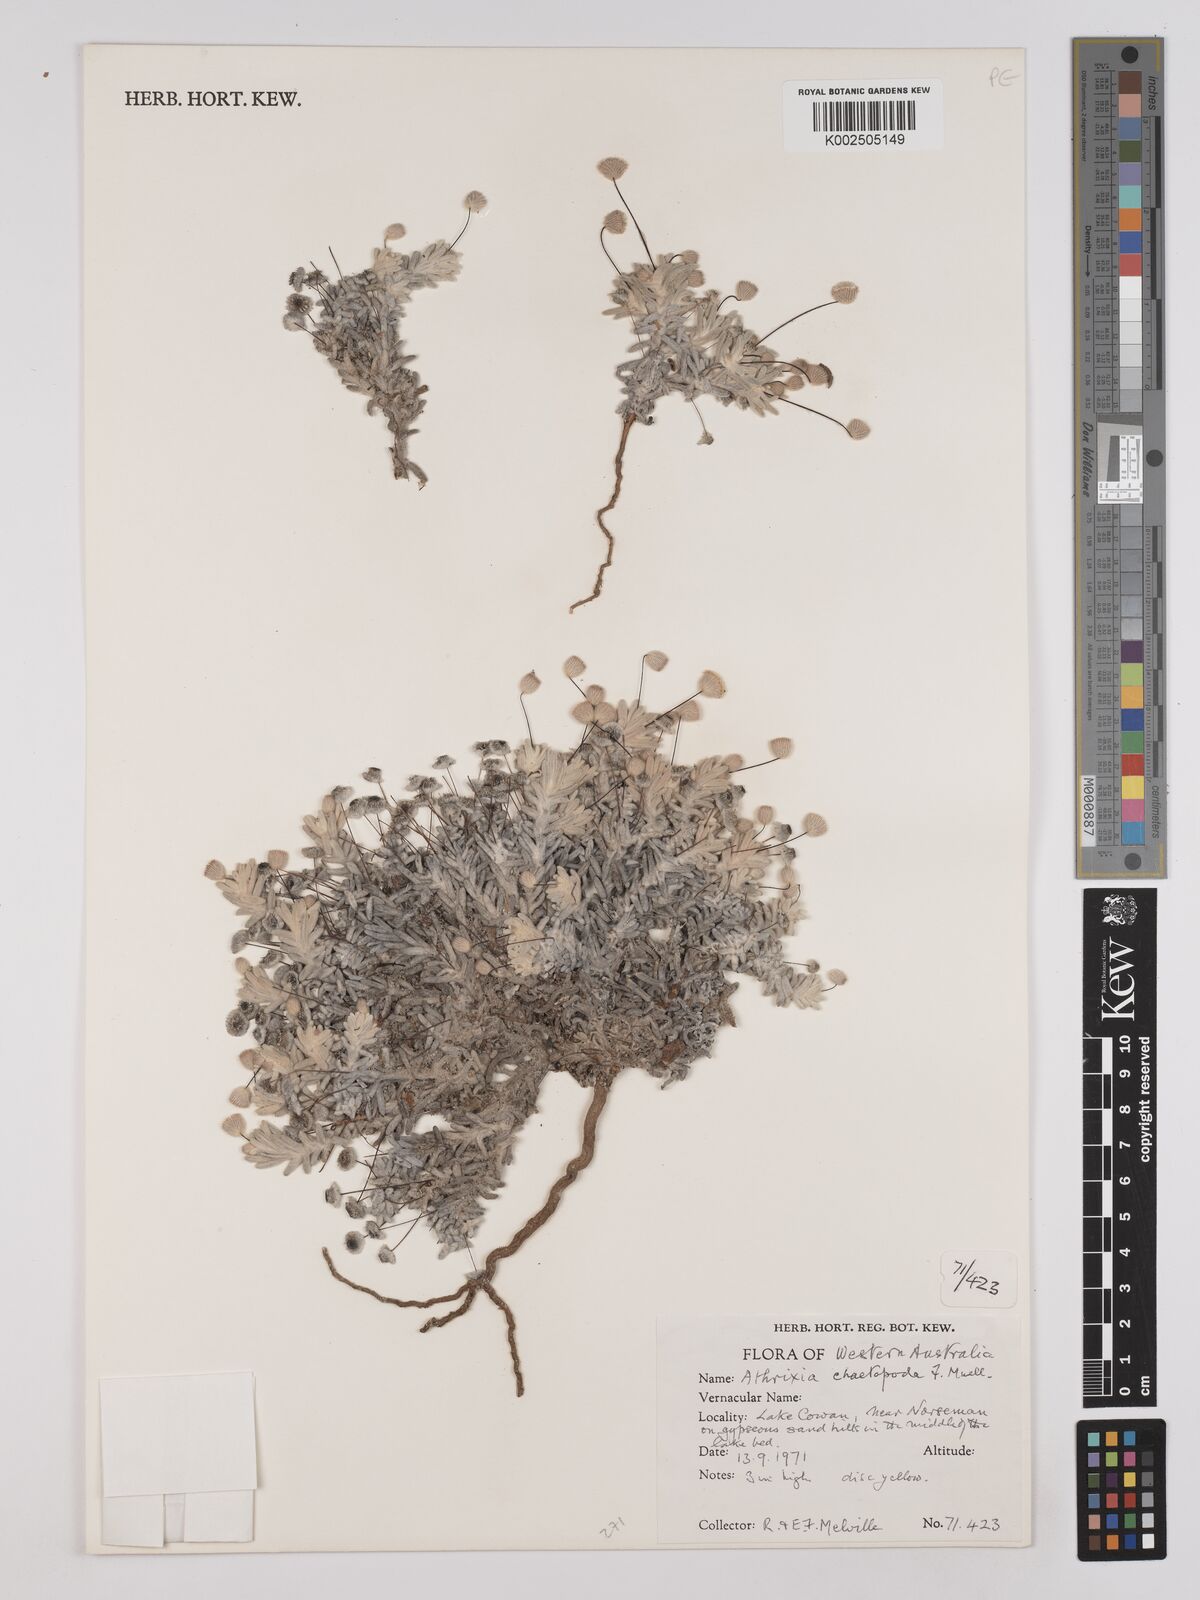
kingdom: Plantae
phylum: Tracheophyta
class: Magnoliopsida
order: Asterales
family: Asteraceae
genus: Asteridea
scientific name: Asteridea chaetopoda
